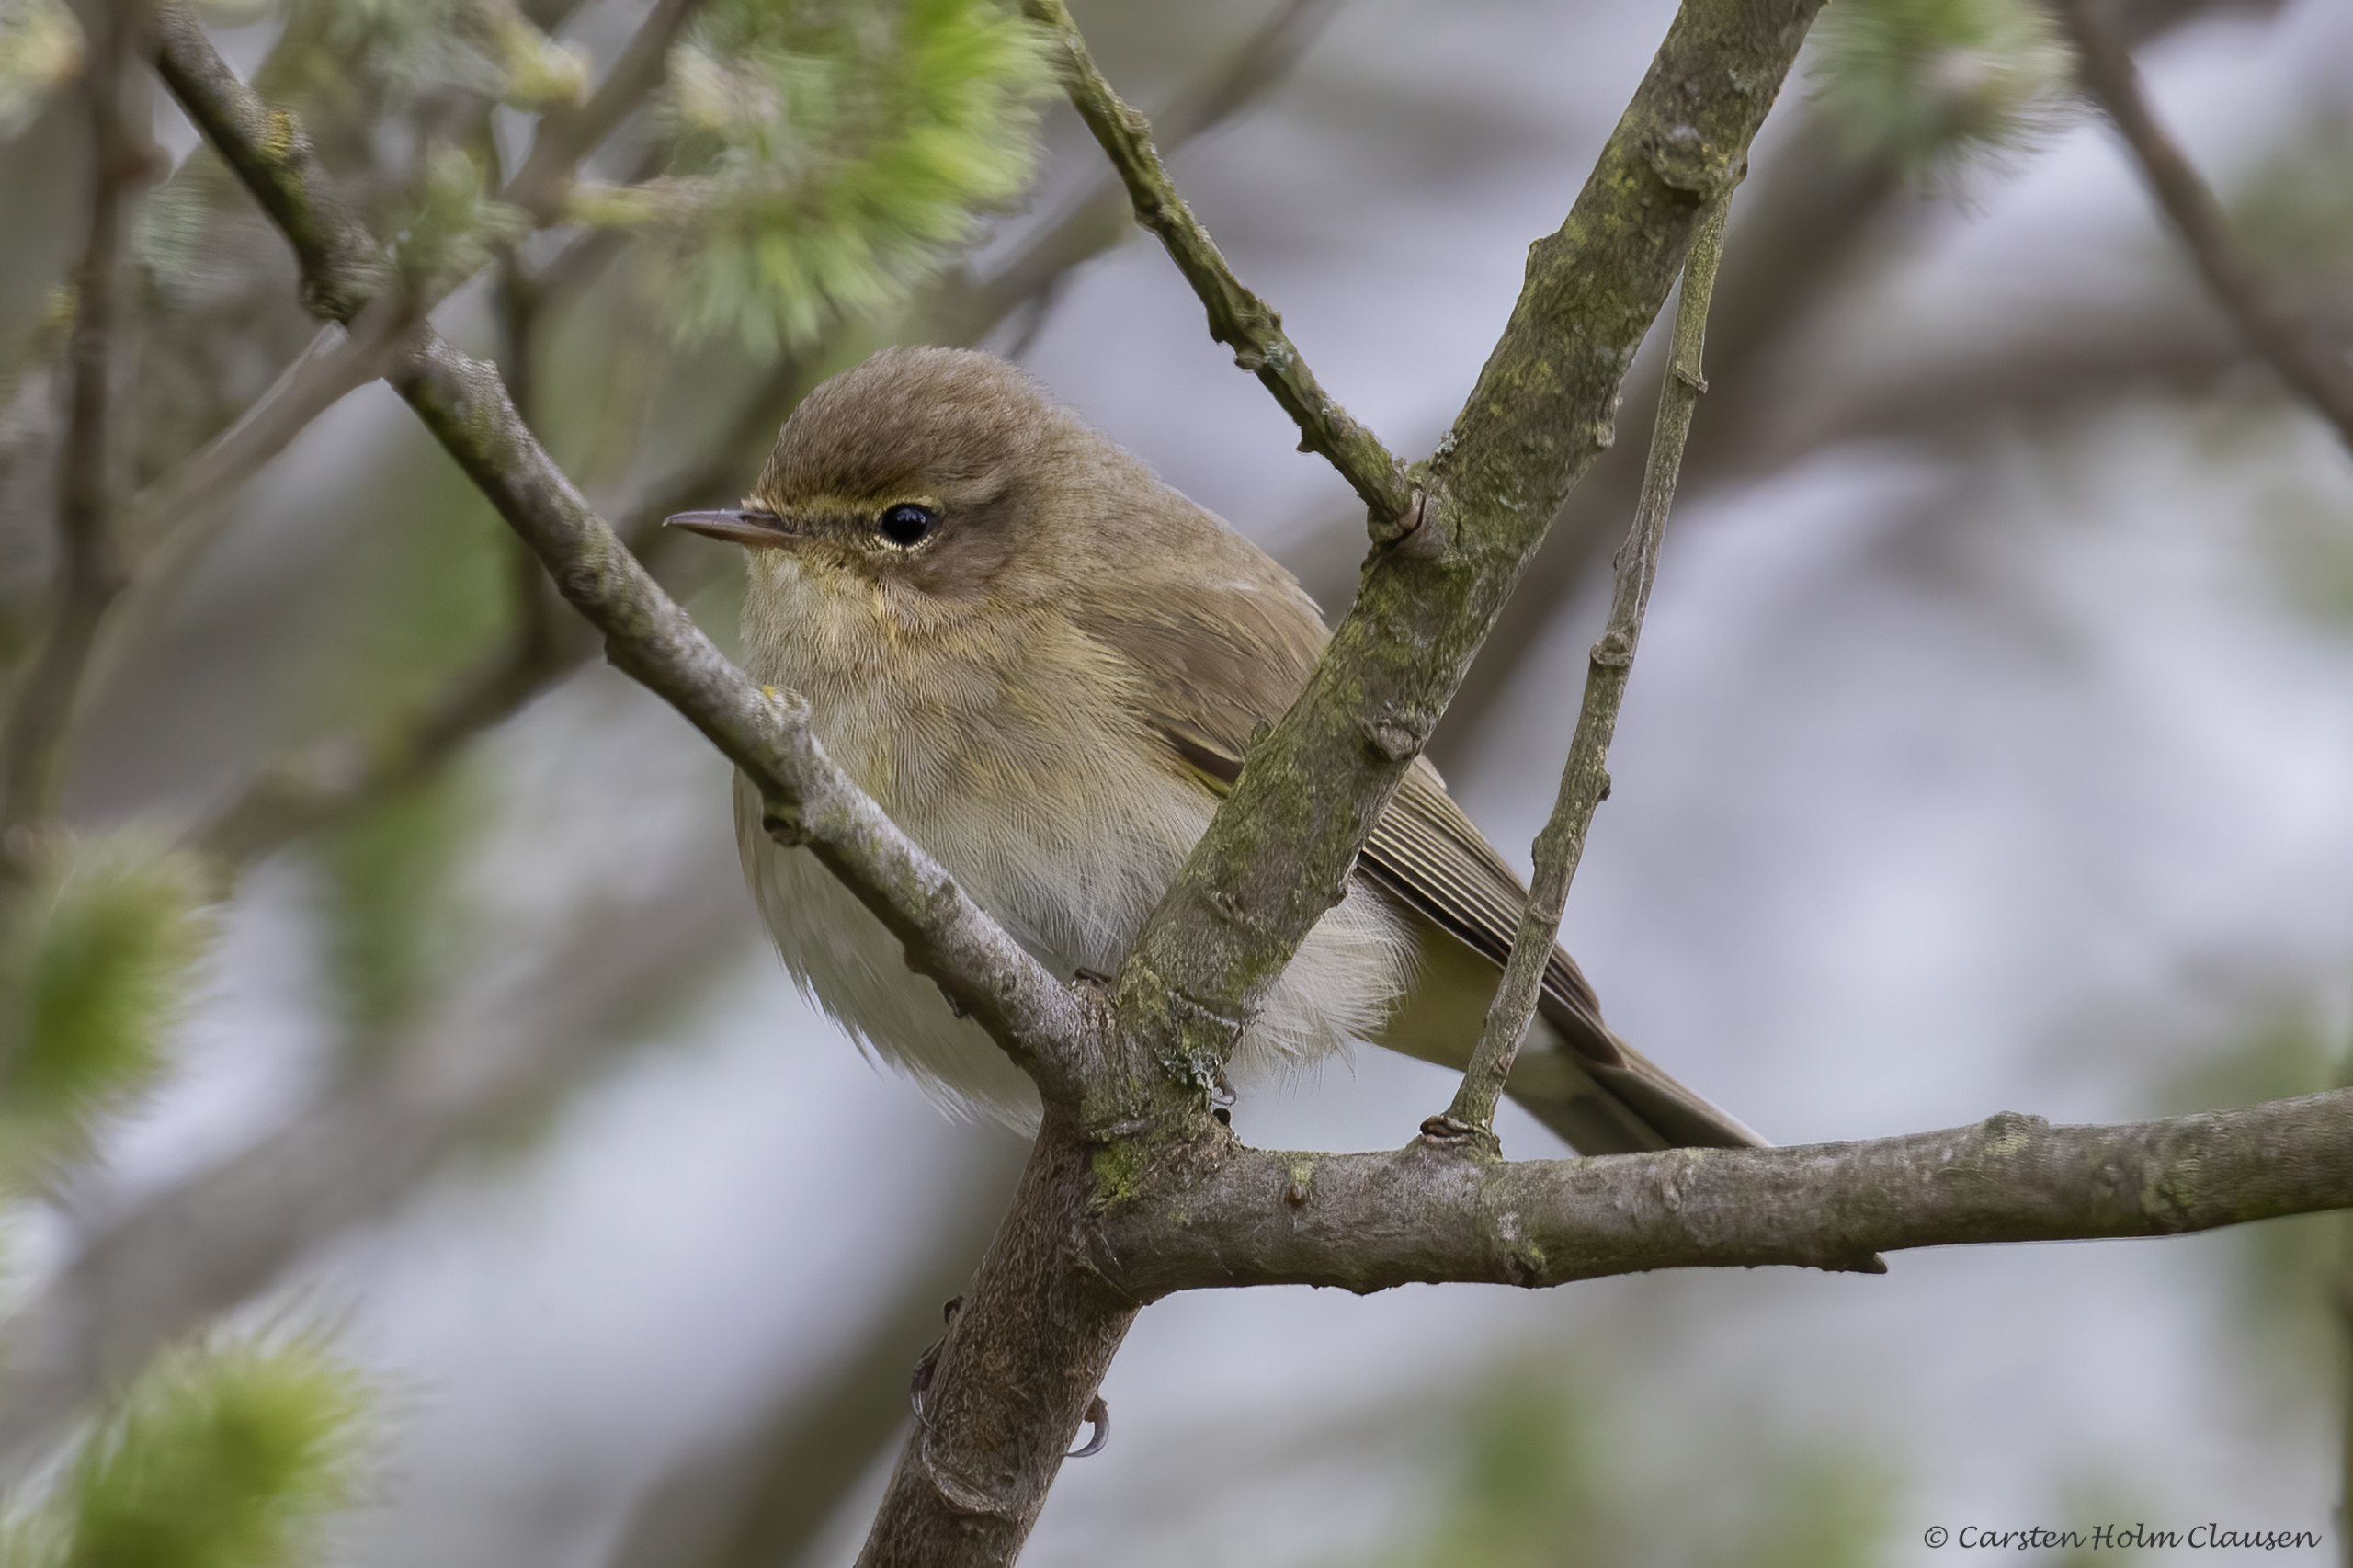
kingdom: Animalia
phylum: Chordata
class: Aves
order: Passeriformes
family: Phylloscopidae
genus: Phylloscopus
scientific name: Phylloscopus collybita
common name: Gransanger
